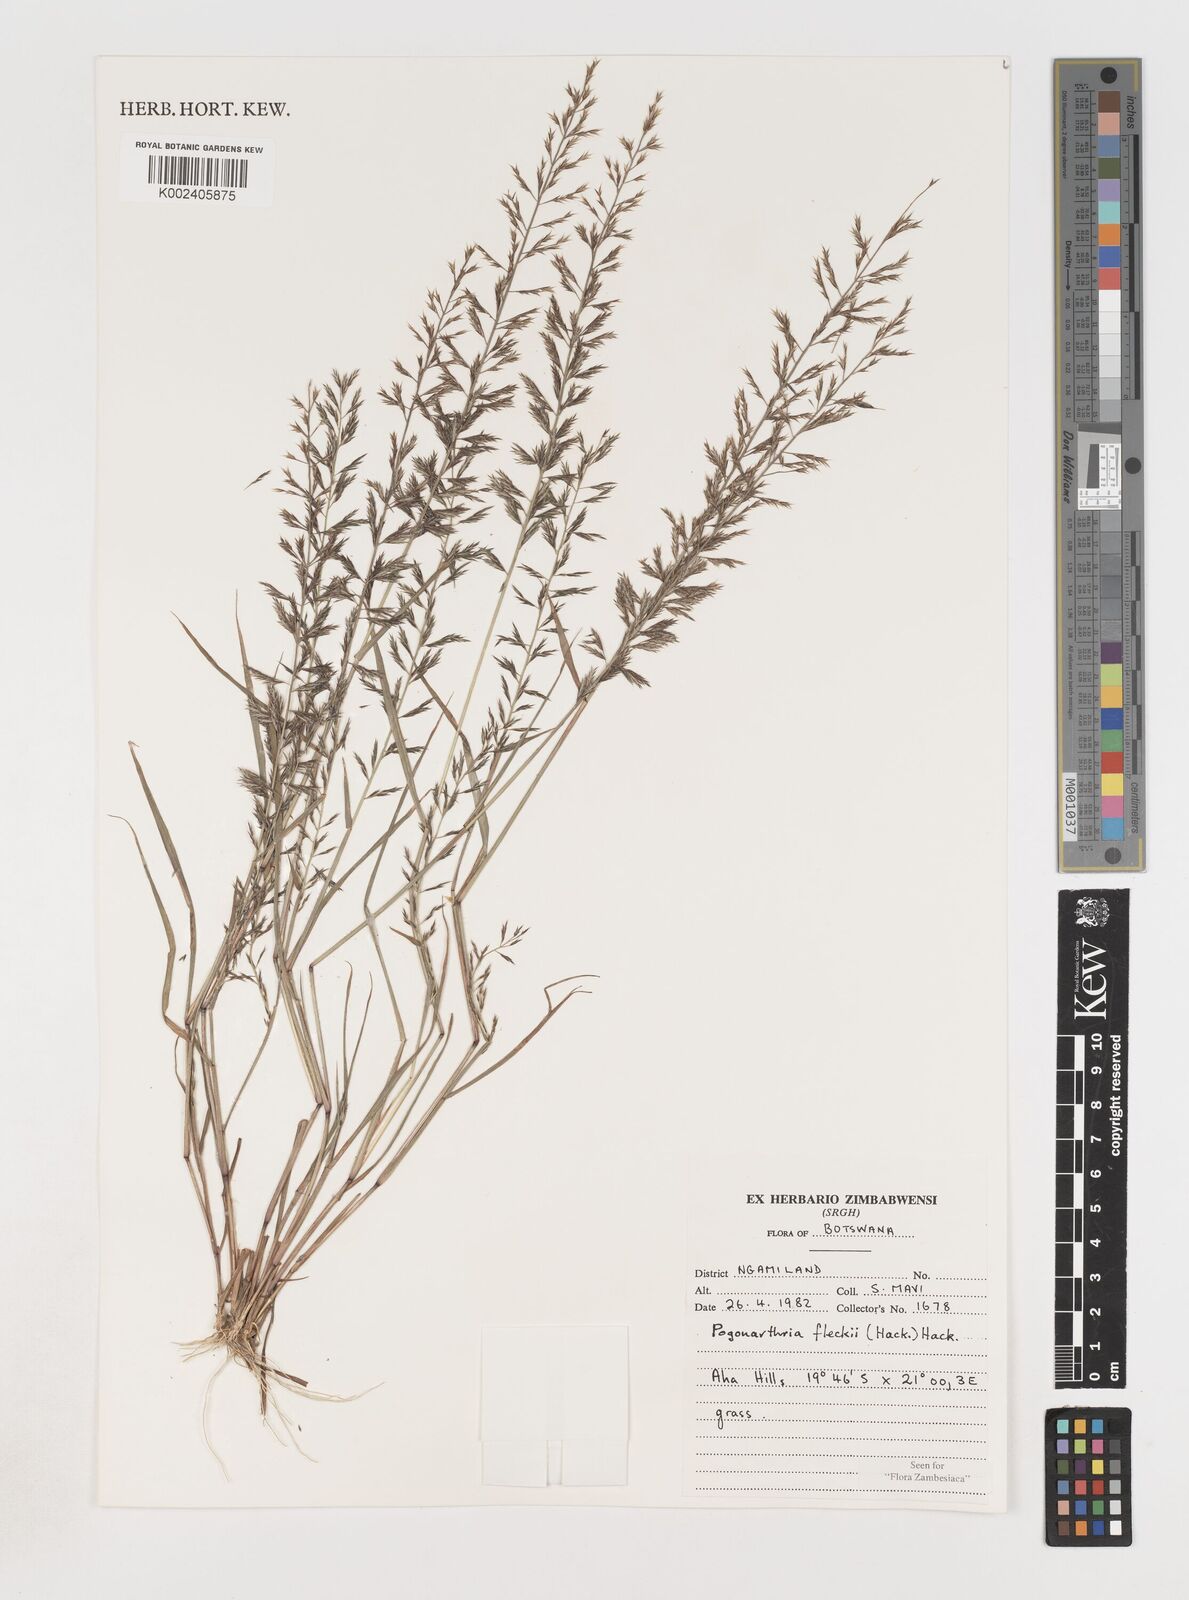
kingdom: Plantae
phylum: Tracheophyta
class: Liliopsida
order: Poales
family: Poaceae
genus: Pogonarthria
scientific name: Pogonarthria fleckii
